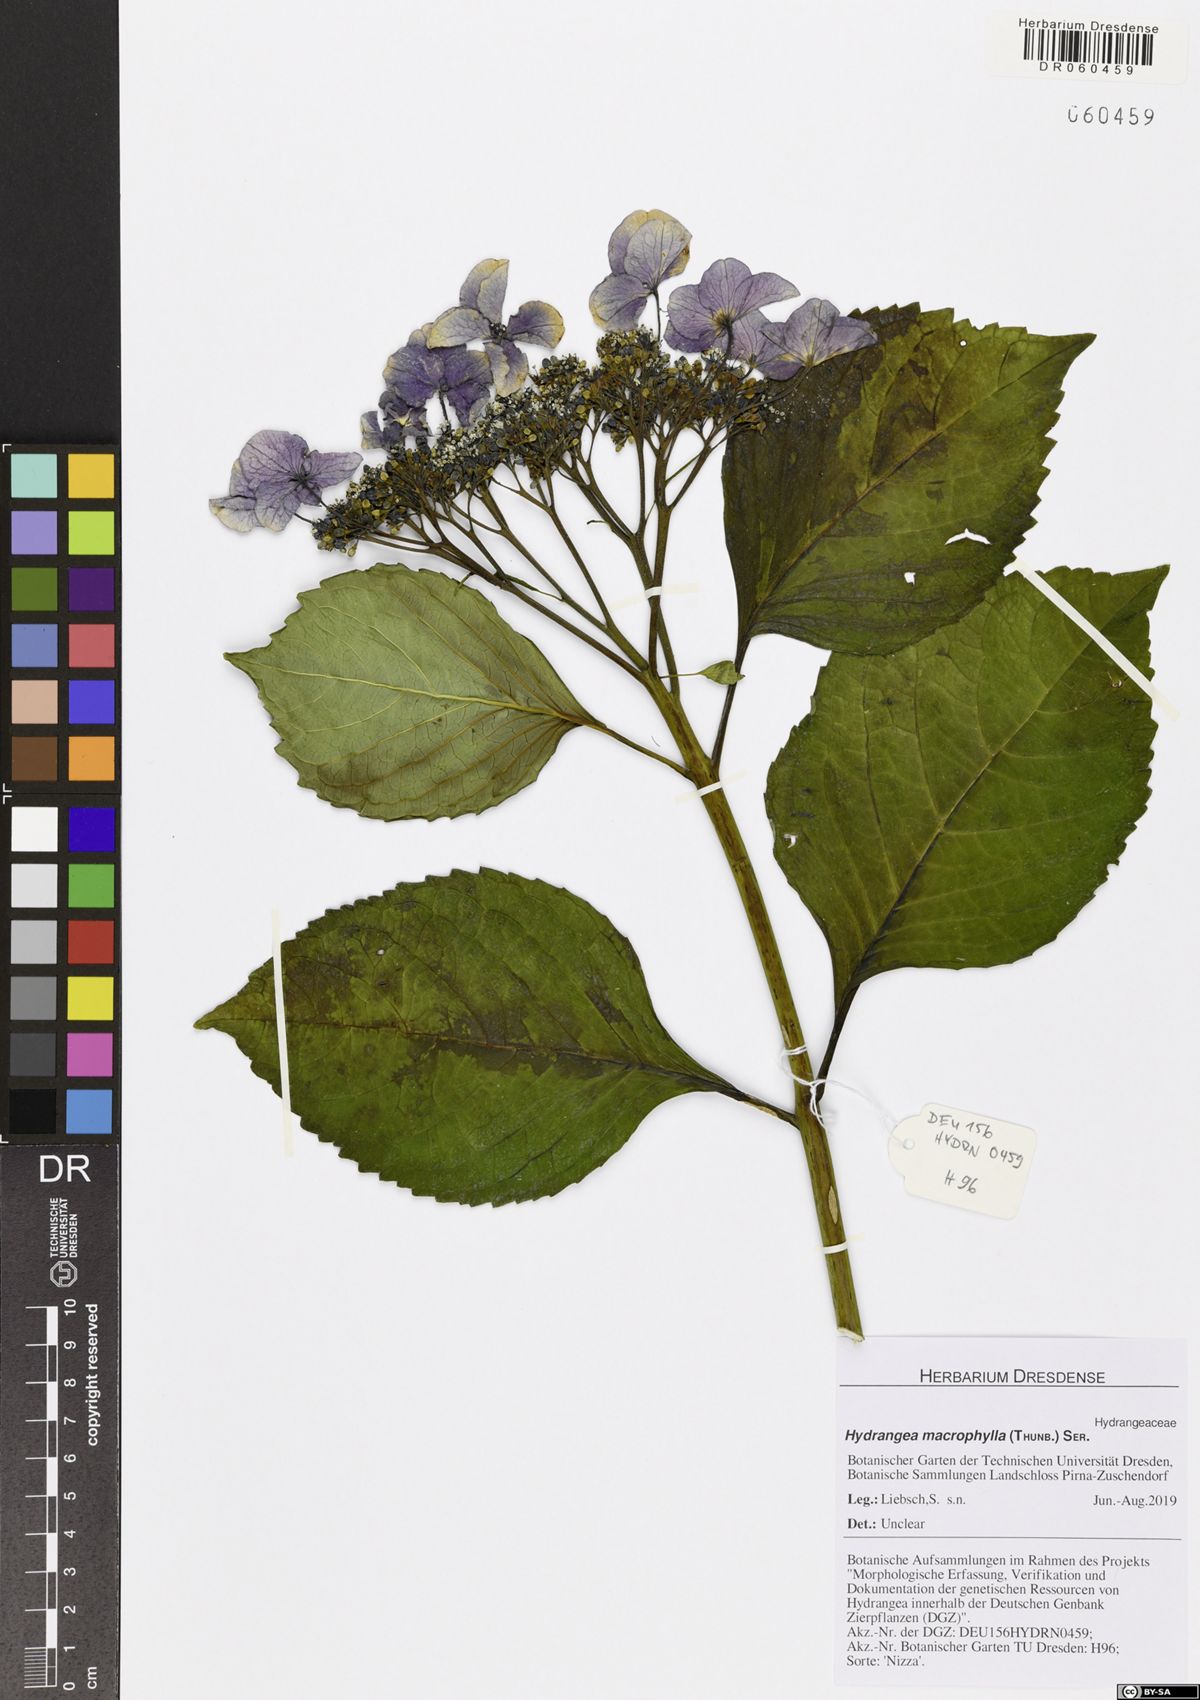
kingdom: Plantae
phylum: Tracheophyta
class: Magnoliopsida
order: Cornales
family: Hydrangeaceae
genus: Hydrangea
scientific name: Hydrangea macrophylla
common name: Hydrangea
